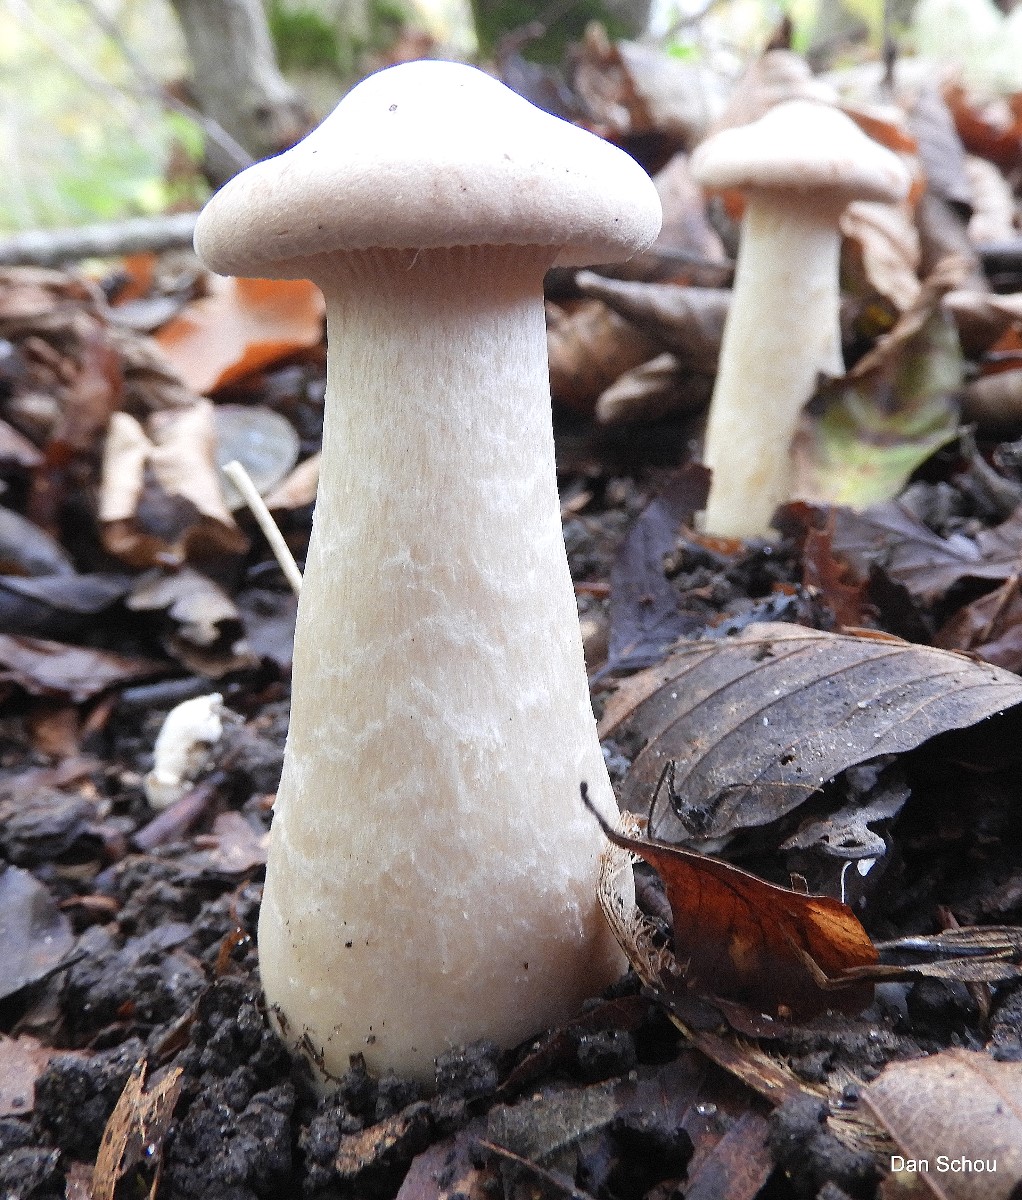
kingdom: Fungi
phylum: Basidiomycota
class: Agaricomycetes
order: Agaricales
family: Tricholomataceae
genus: Infundibulicybe
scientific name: Infundibulicybe geotropa
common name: stor tragthat
